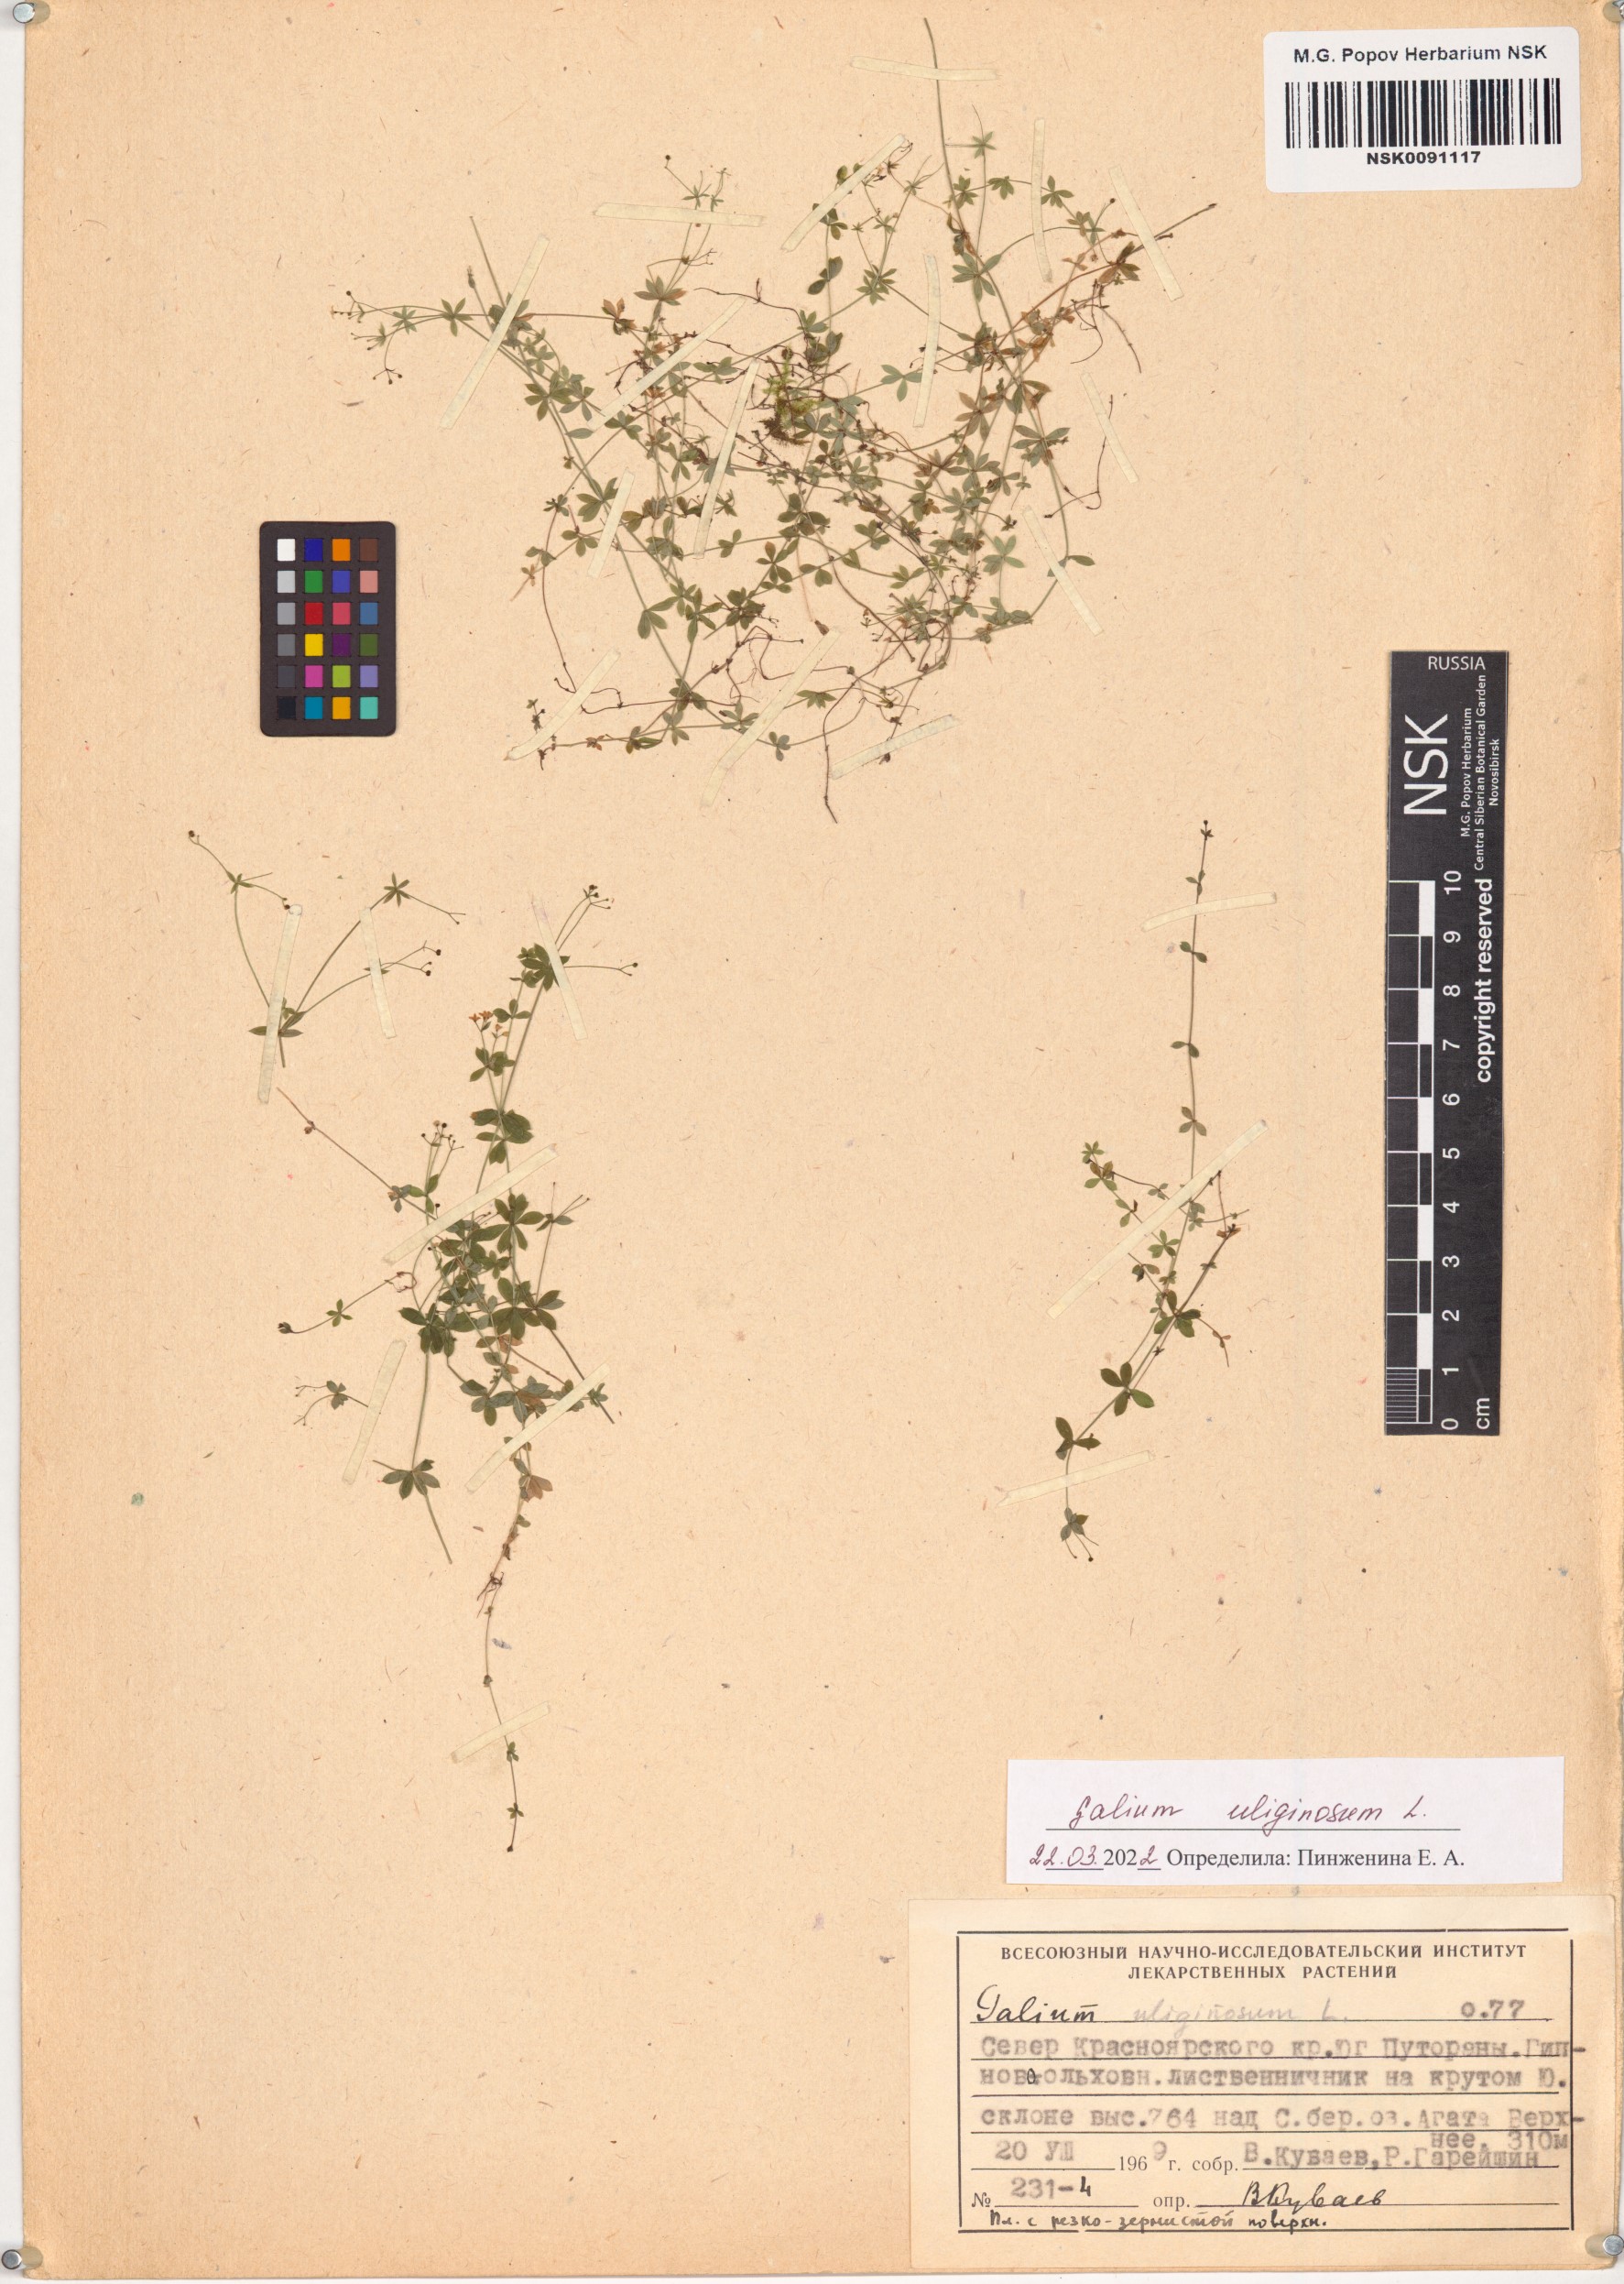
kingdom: Plantae
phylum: Tracheophyta
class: Magnoliopsida
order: Gentianales
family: Rubiaceae
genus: Galium
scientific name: Galium uliginosum
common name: Fen bedstraw
